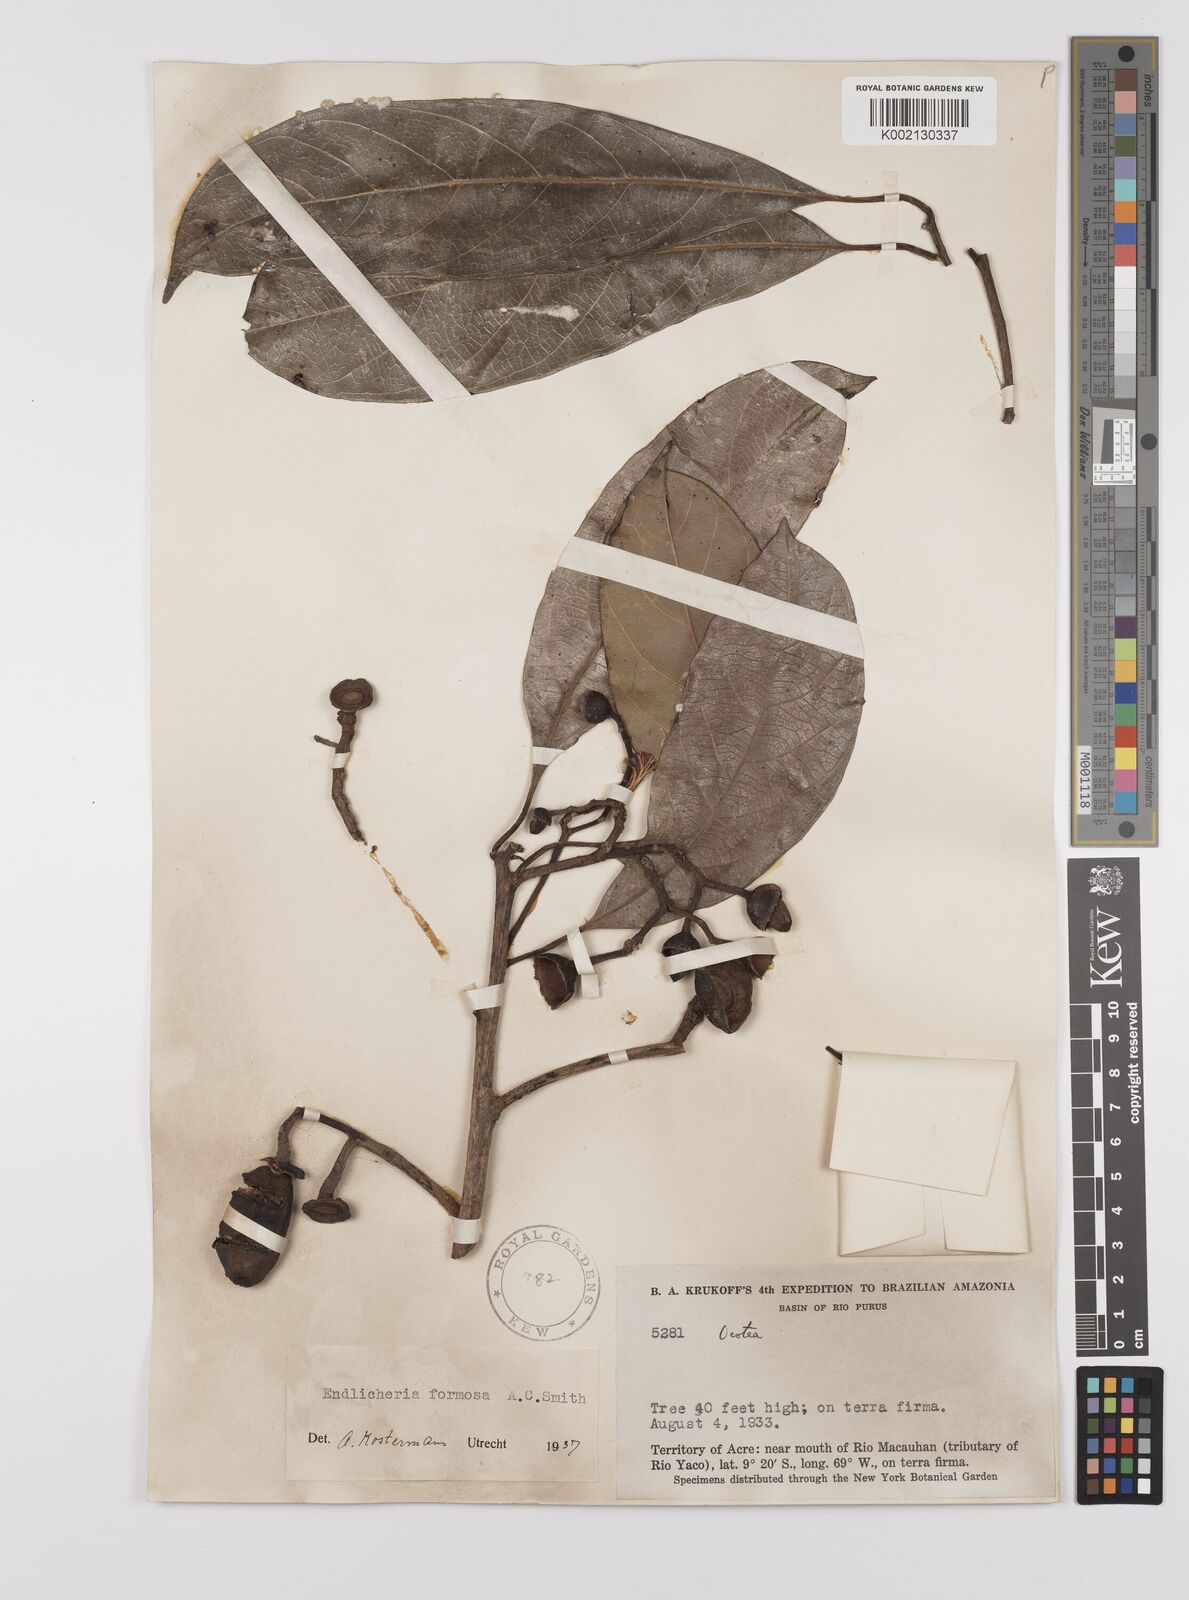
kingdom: Plantae
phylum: Tracheophyta
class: Magnoliopsida
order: Laurales
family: Lauraceae
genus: Endlicheria
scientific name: Endlicheria formosa
